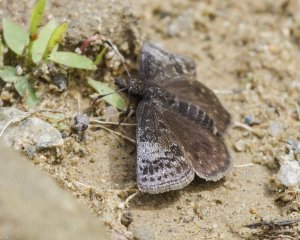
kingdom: Animalia
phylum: Arthropoda
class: Insecta
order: Lepidoptera
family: Hesperiidae
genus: Erynnis
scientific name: Erynnis icelus
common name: Dreamy Duskywing
